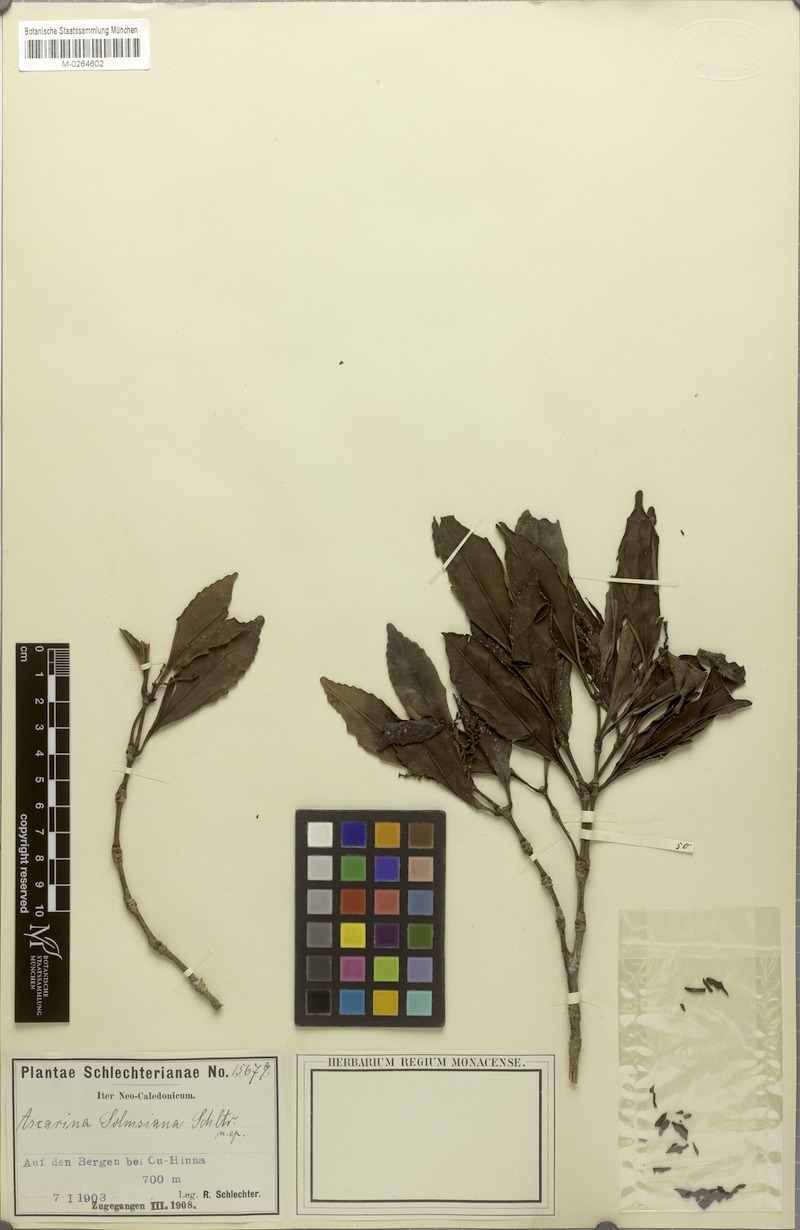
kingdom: Plantae
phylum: Tracheophyta
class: Magnoliopsida
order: Chloranthales
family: Chloranthaceae
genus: Ascarina
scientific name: Ascarina solmsiana
